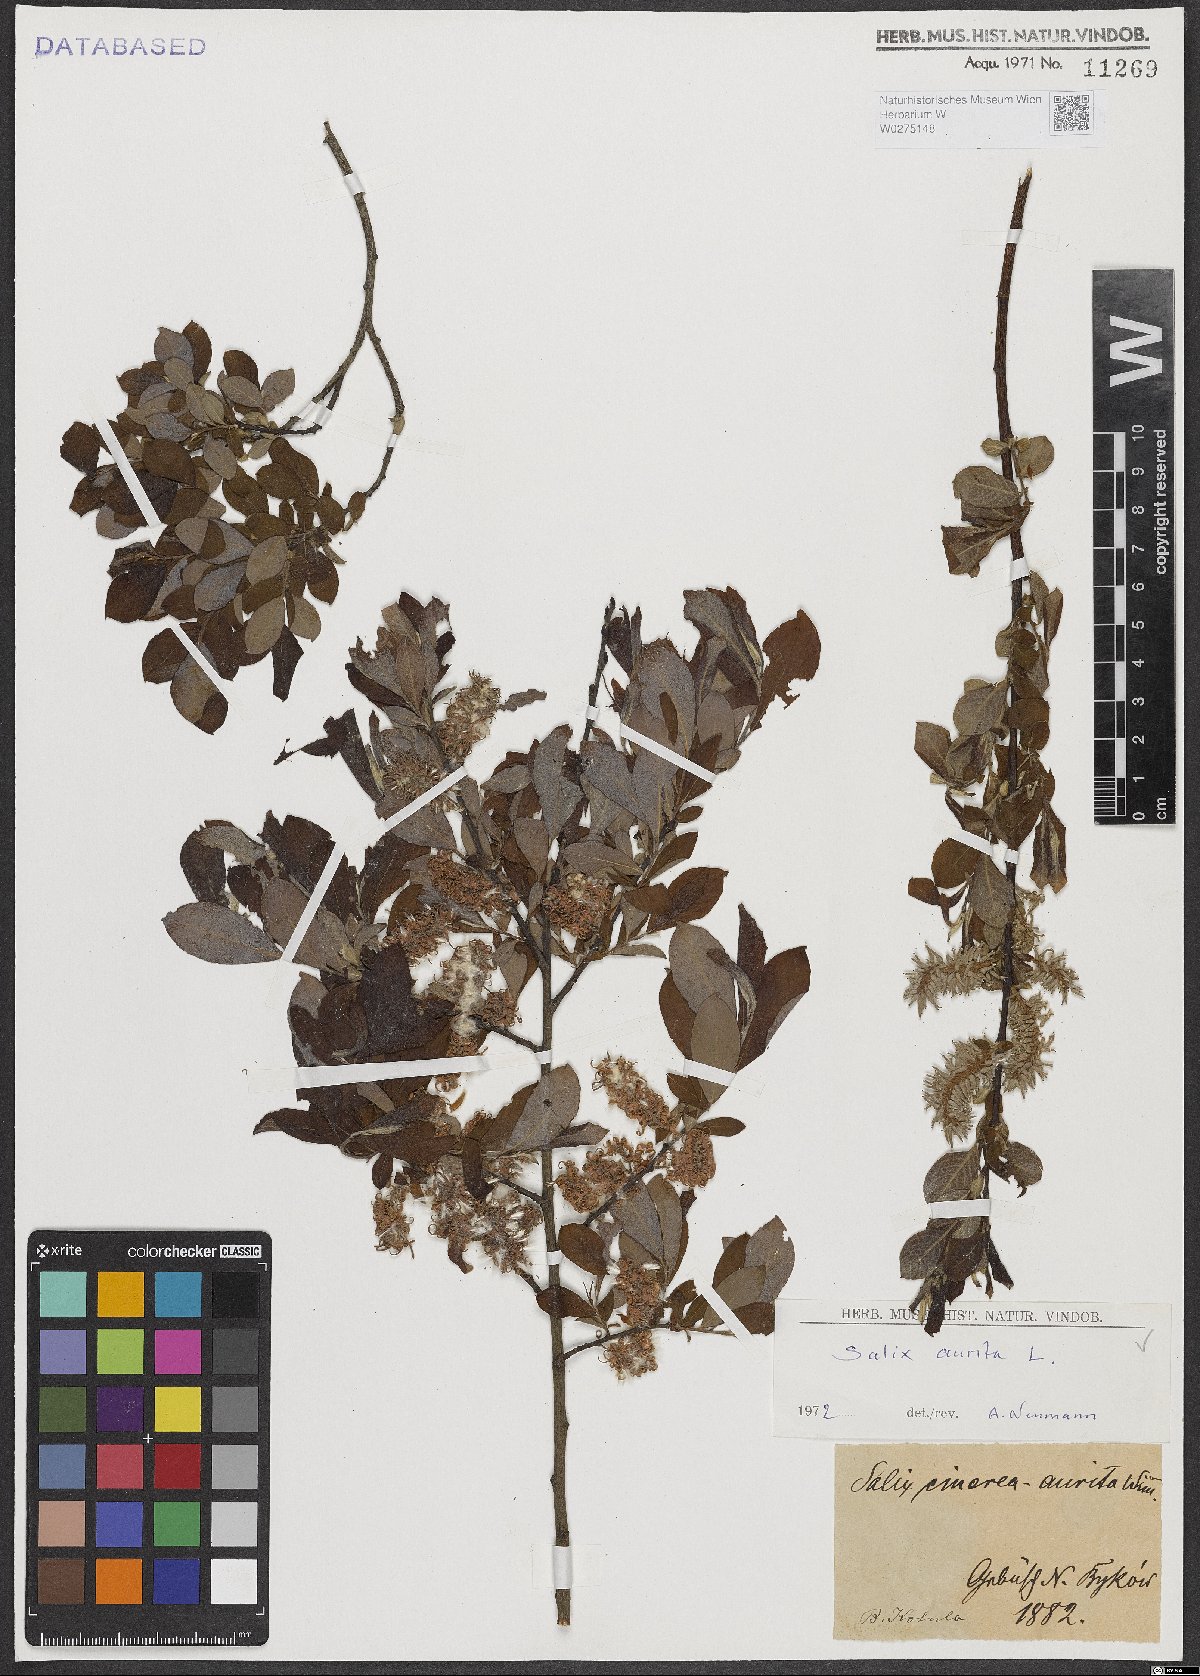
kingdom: Plantae
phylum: Tracheophyta
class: Magnoliopsida
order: Malpighiales
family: Salicaceae
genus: Salix
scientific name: Salix aurita
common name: Eared willow
